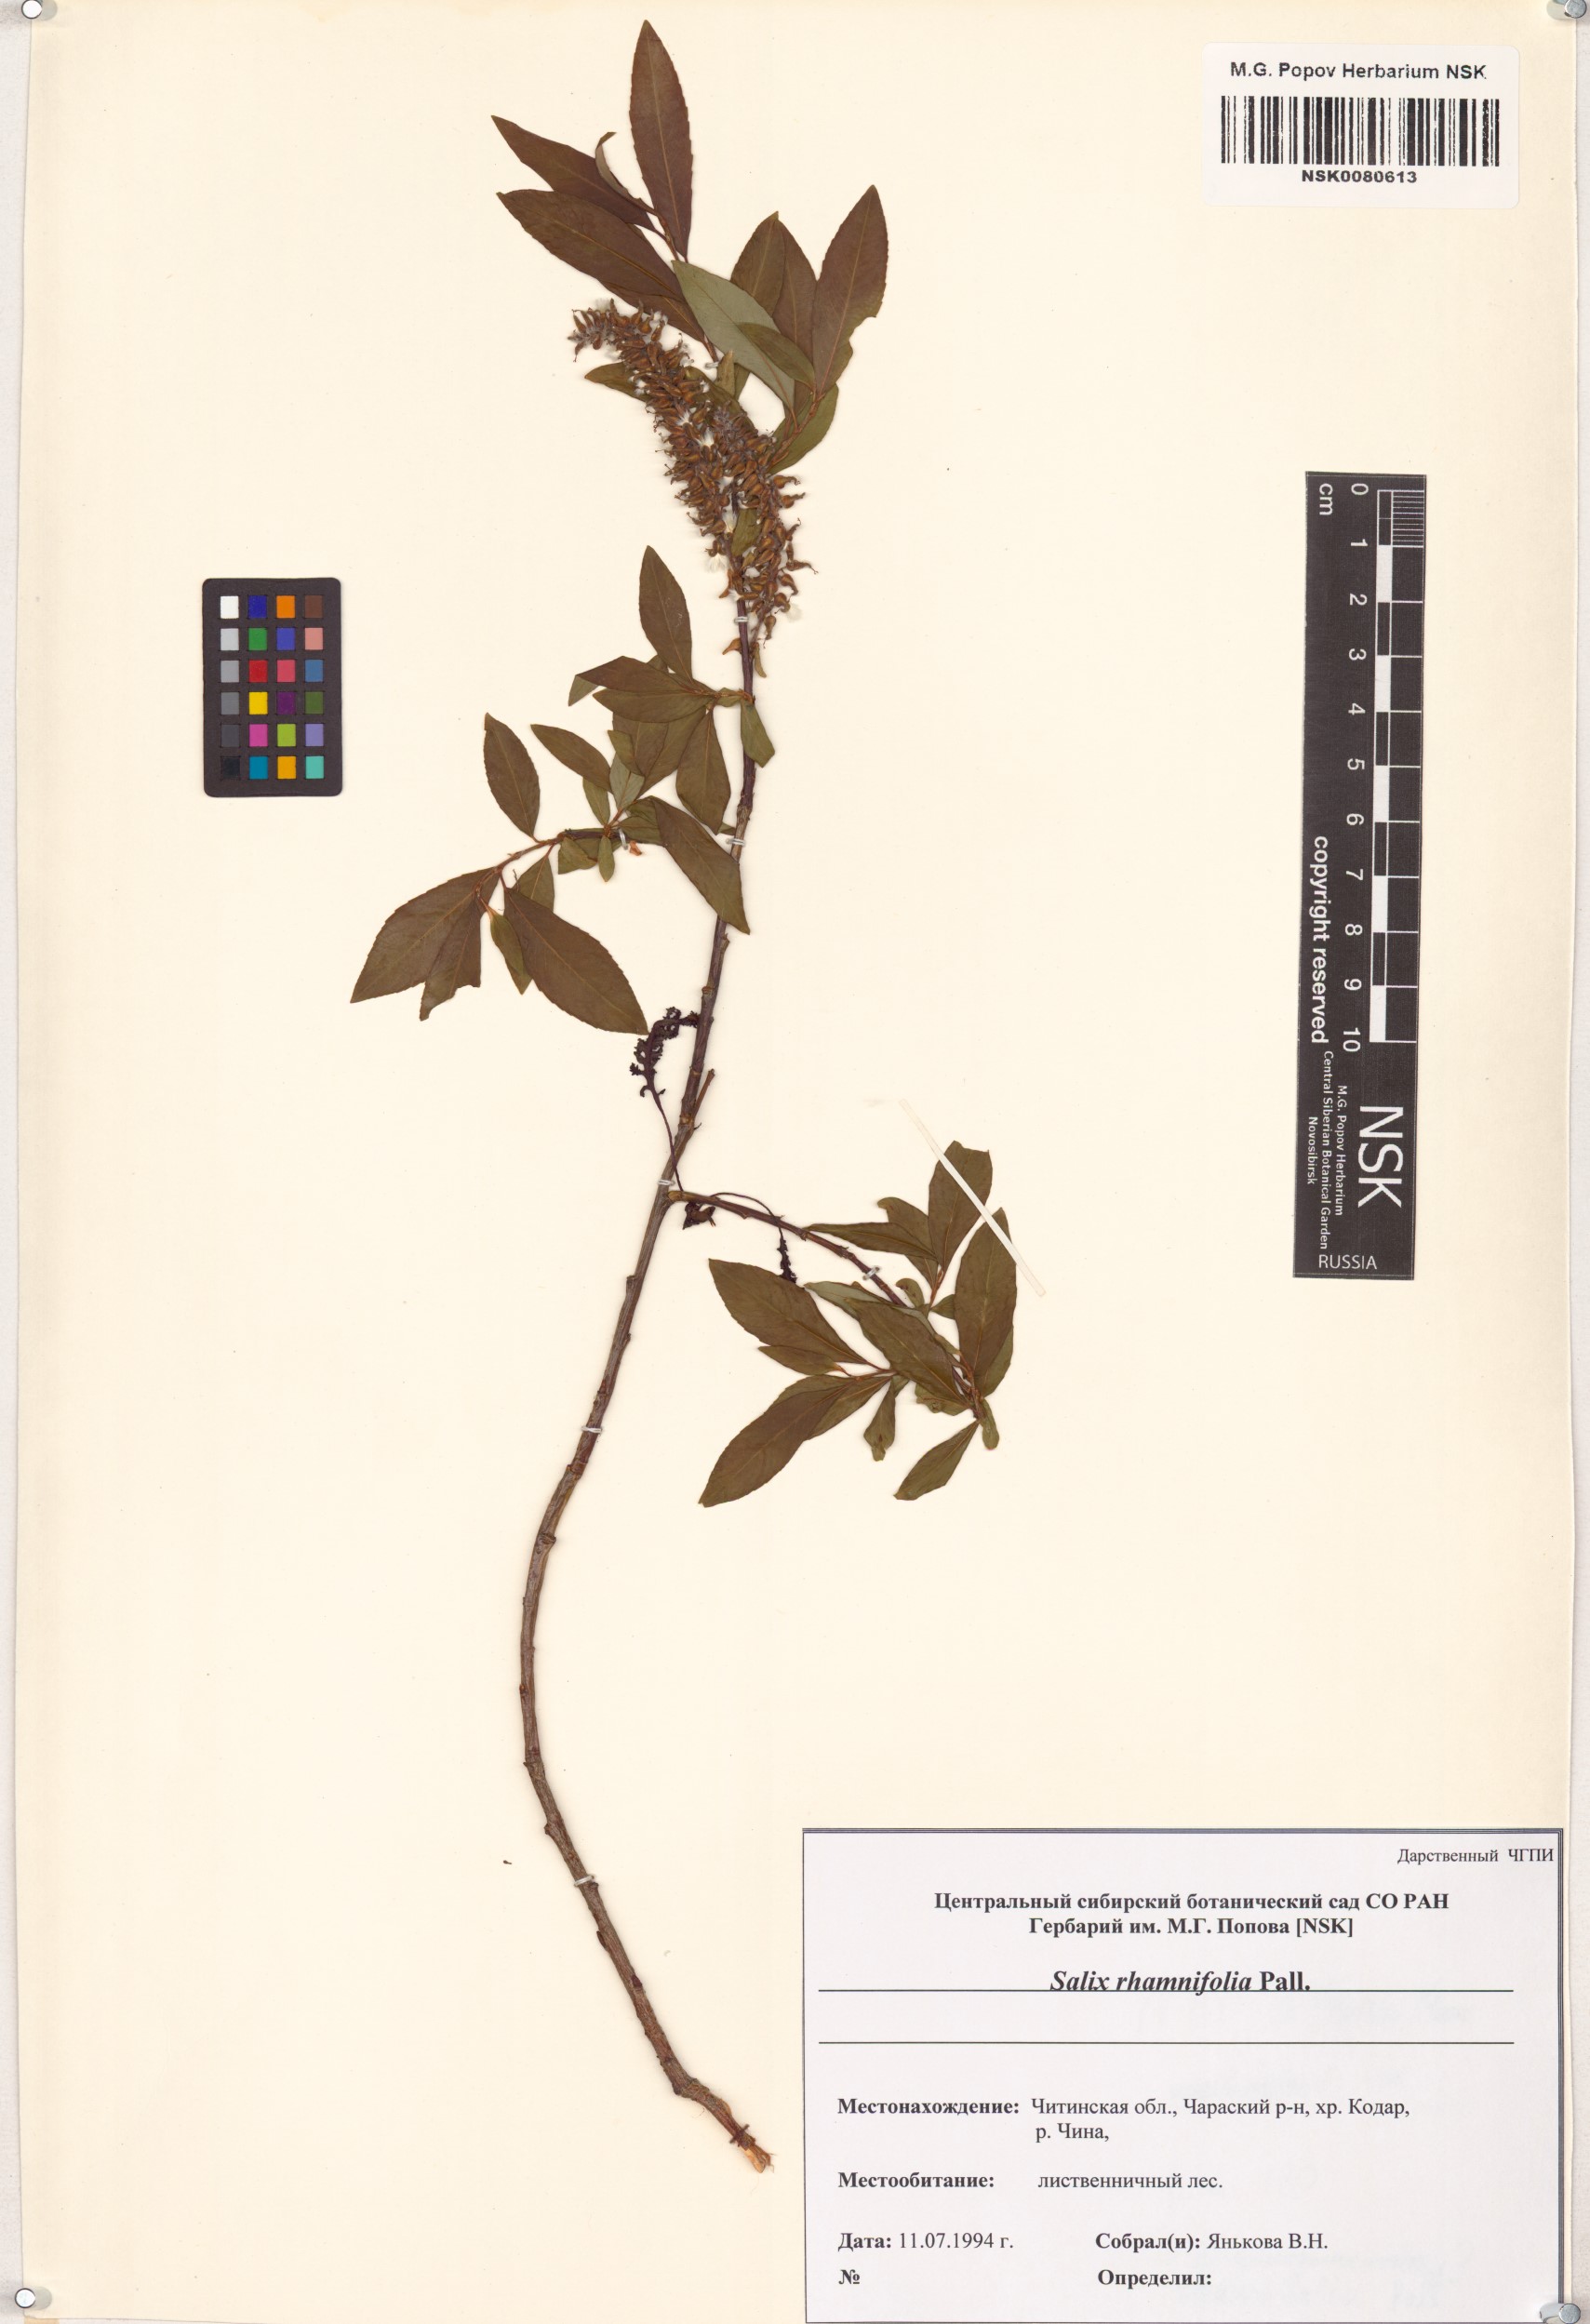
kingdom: Plantae
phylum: Tracheophyta
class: Magnoliopsida
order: Malpighiales
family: Salicaceae
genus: Salix
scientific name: Salix rhamnifolia
